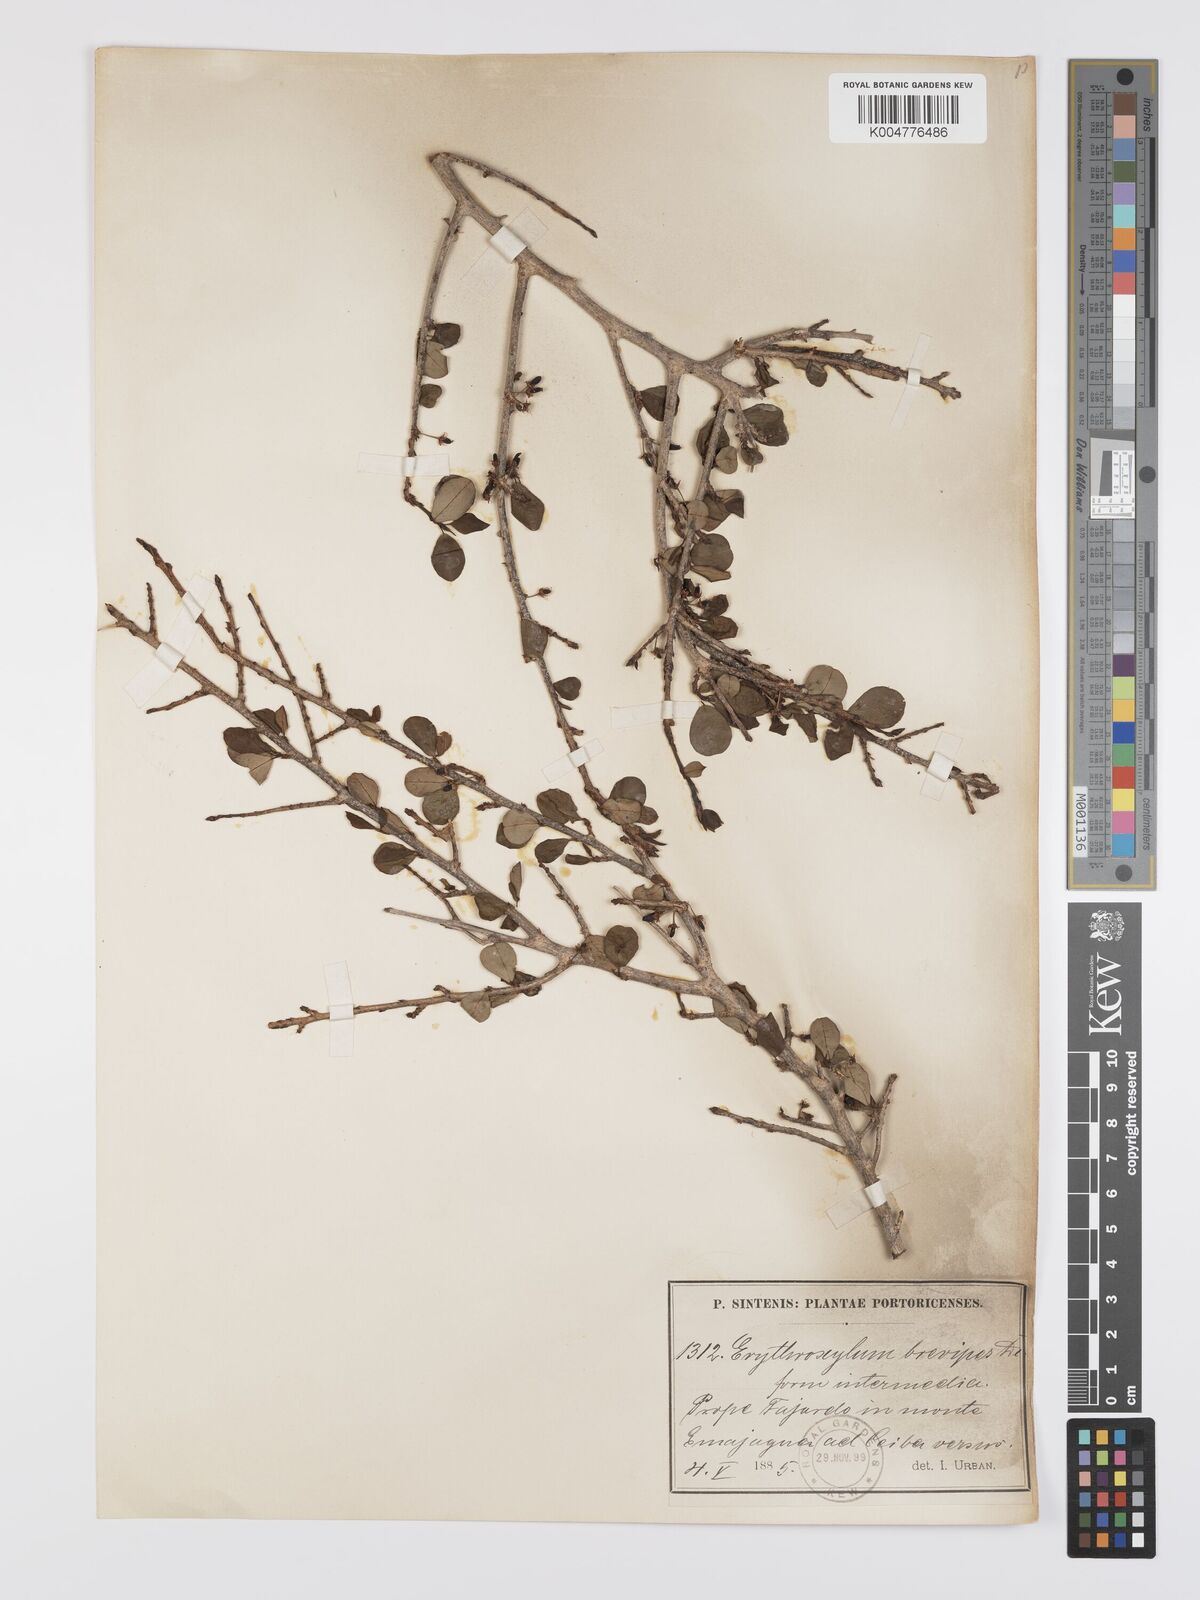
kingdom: Plantae
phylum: Tracheophyta
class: Magnoliopsida
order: Malpighiales
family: Erythroxylaceae
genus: Erythroxylum
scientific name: Erythroxylum brevipes
